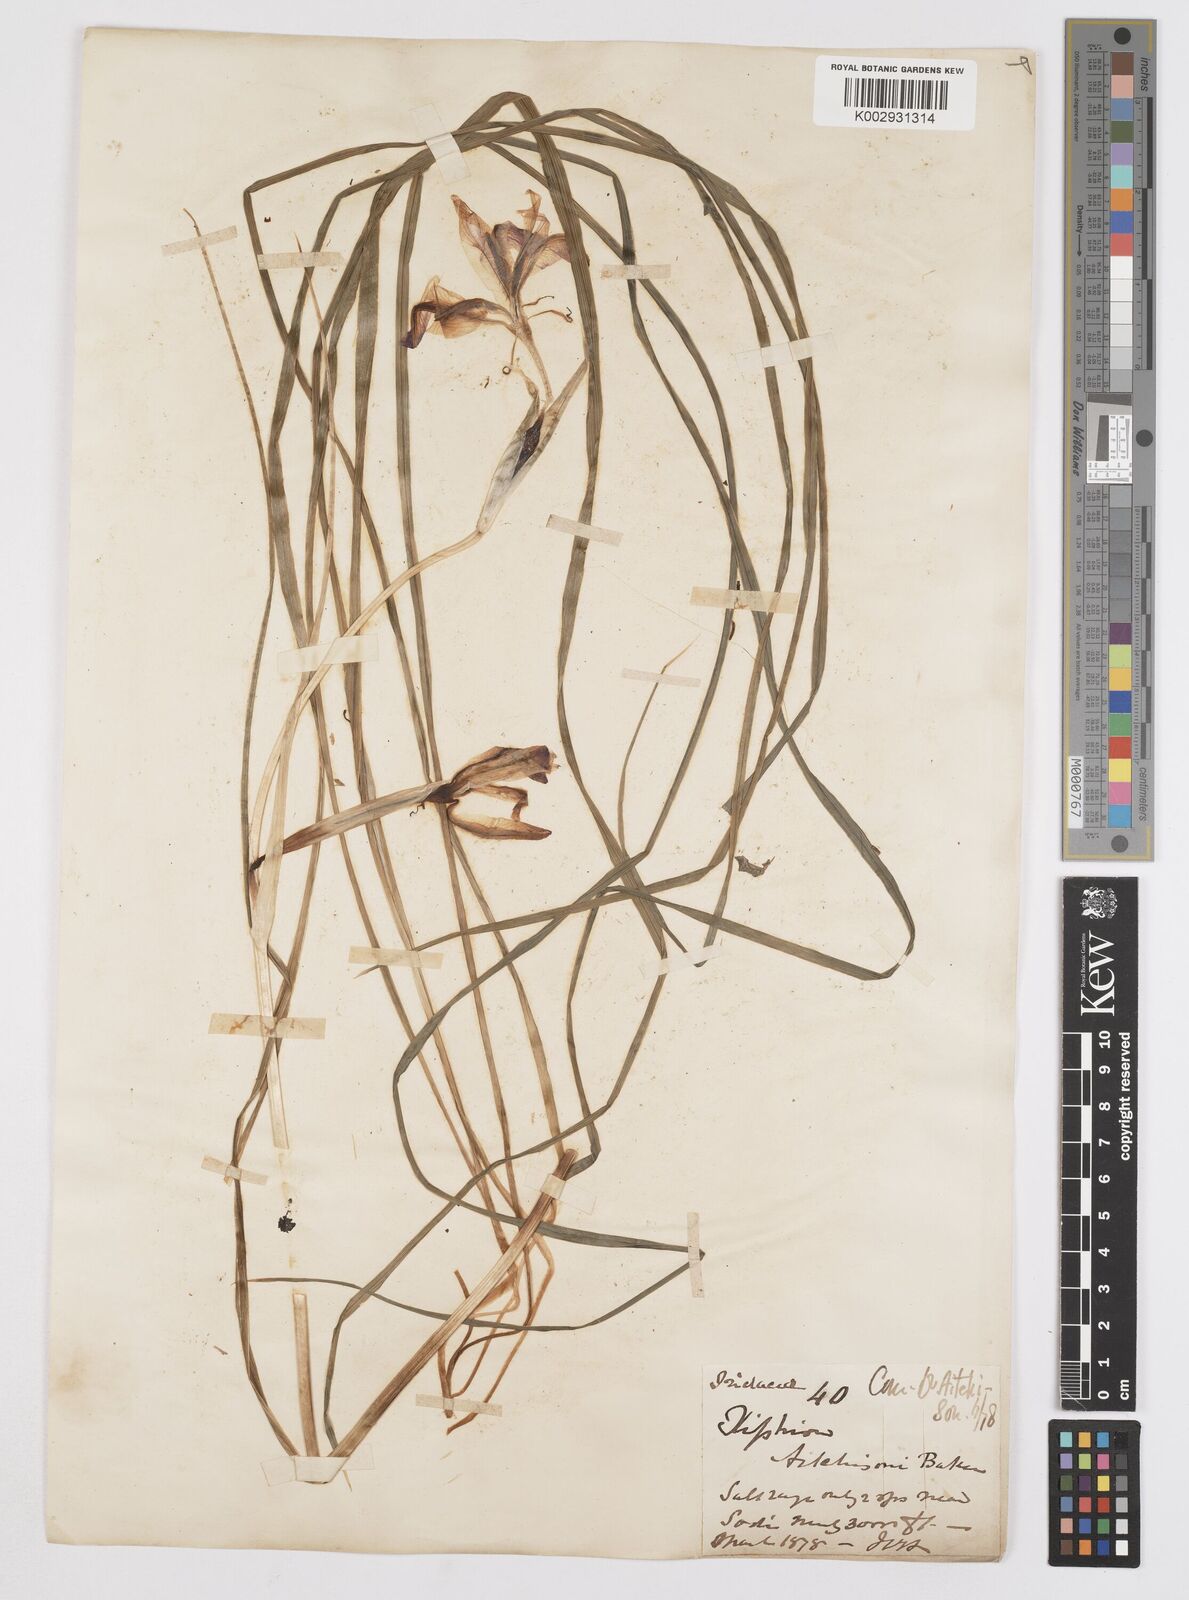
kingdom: Plantae
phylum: Tracheophyta
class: Liliopsida
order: Asparagales
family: Iridaceae
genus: Iris
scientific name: Iris aitchisonii
